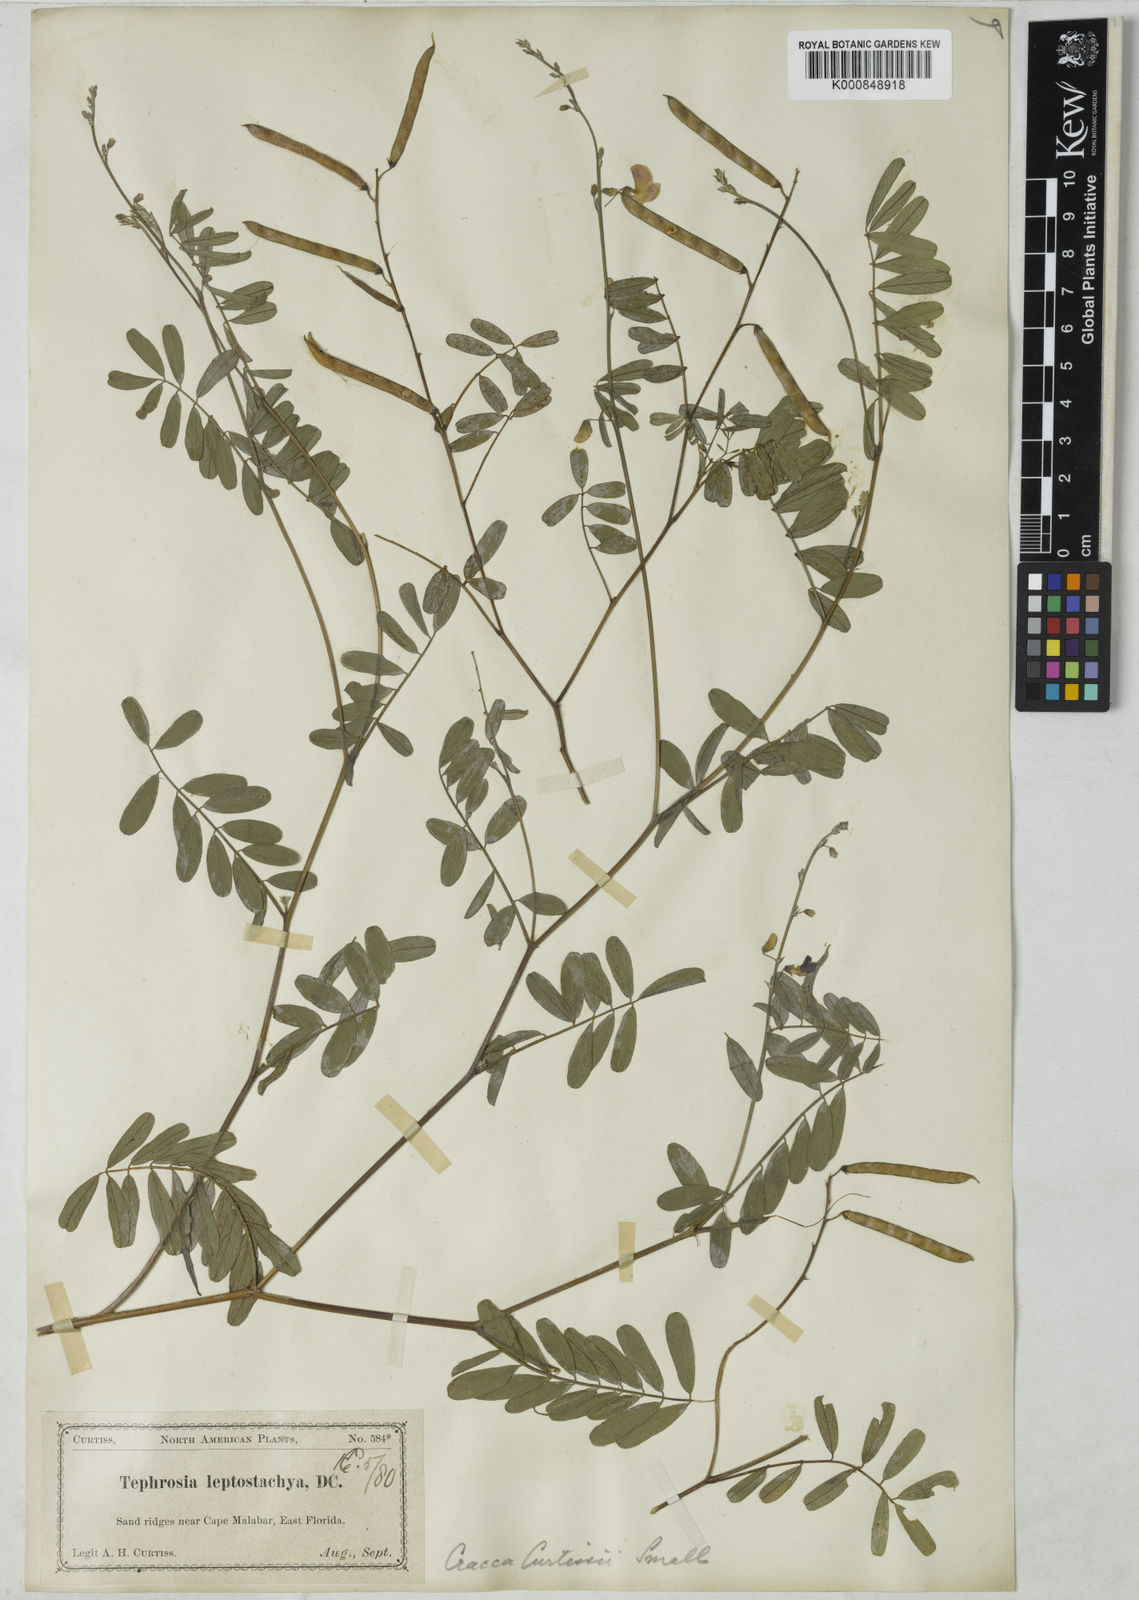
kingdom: Plantae
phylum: Tracheophyta
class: Magnoliopsida
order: Fabales
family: Fabaceae
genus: Tephrosia
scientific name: Tephrosia angustissima
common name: Devil's shoestring
